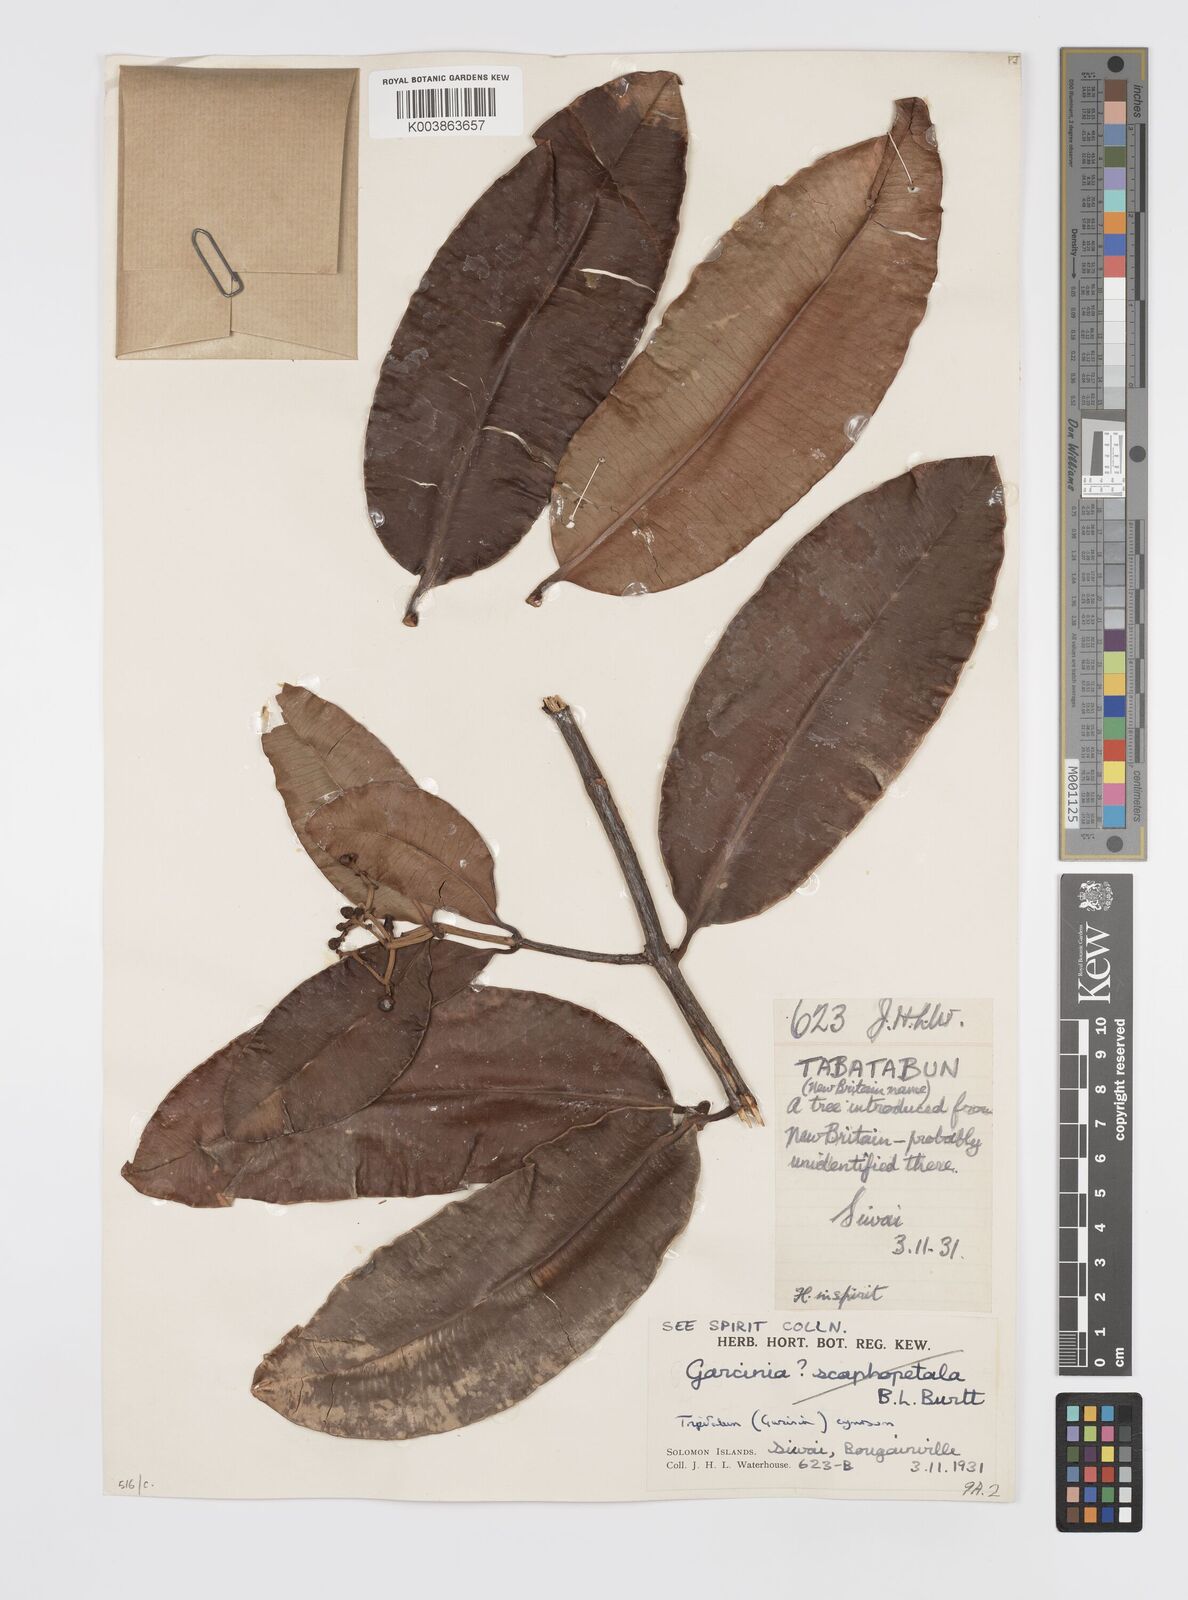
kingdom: Plantae
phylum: Tracheophyta
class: Magnoliopsida
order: Malpighiales
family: Clusiaceae
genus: Garcinia
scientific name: Garcinia
